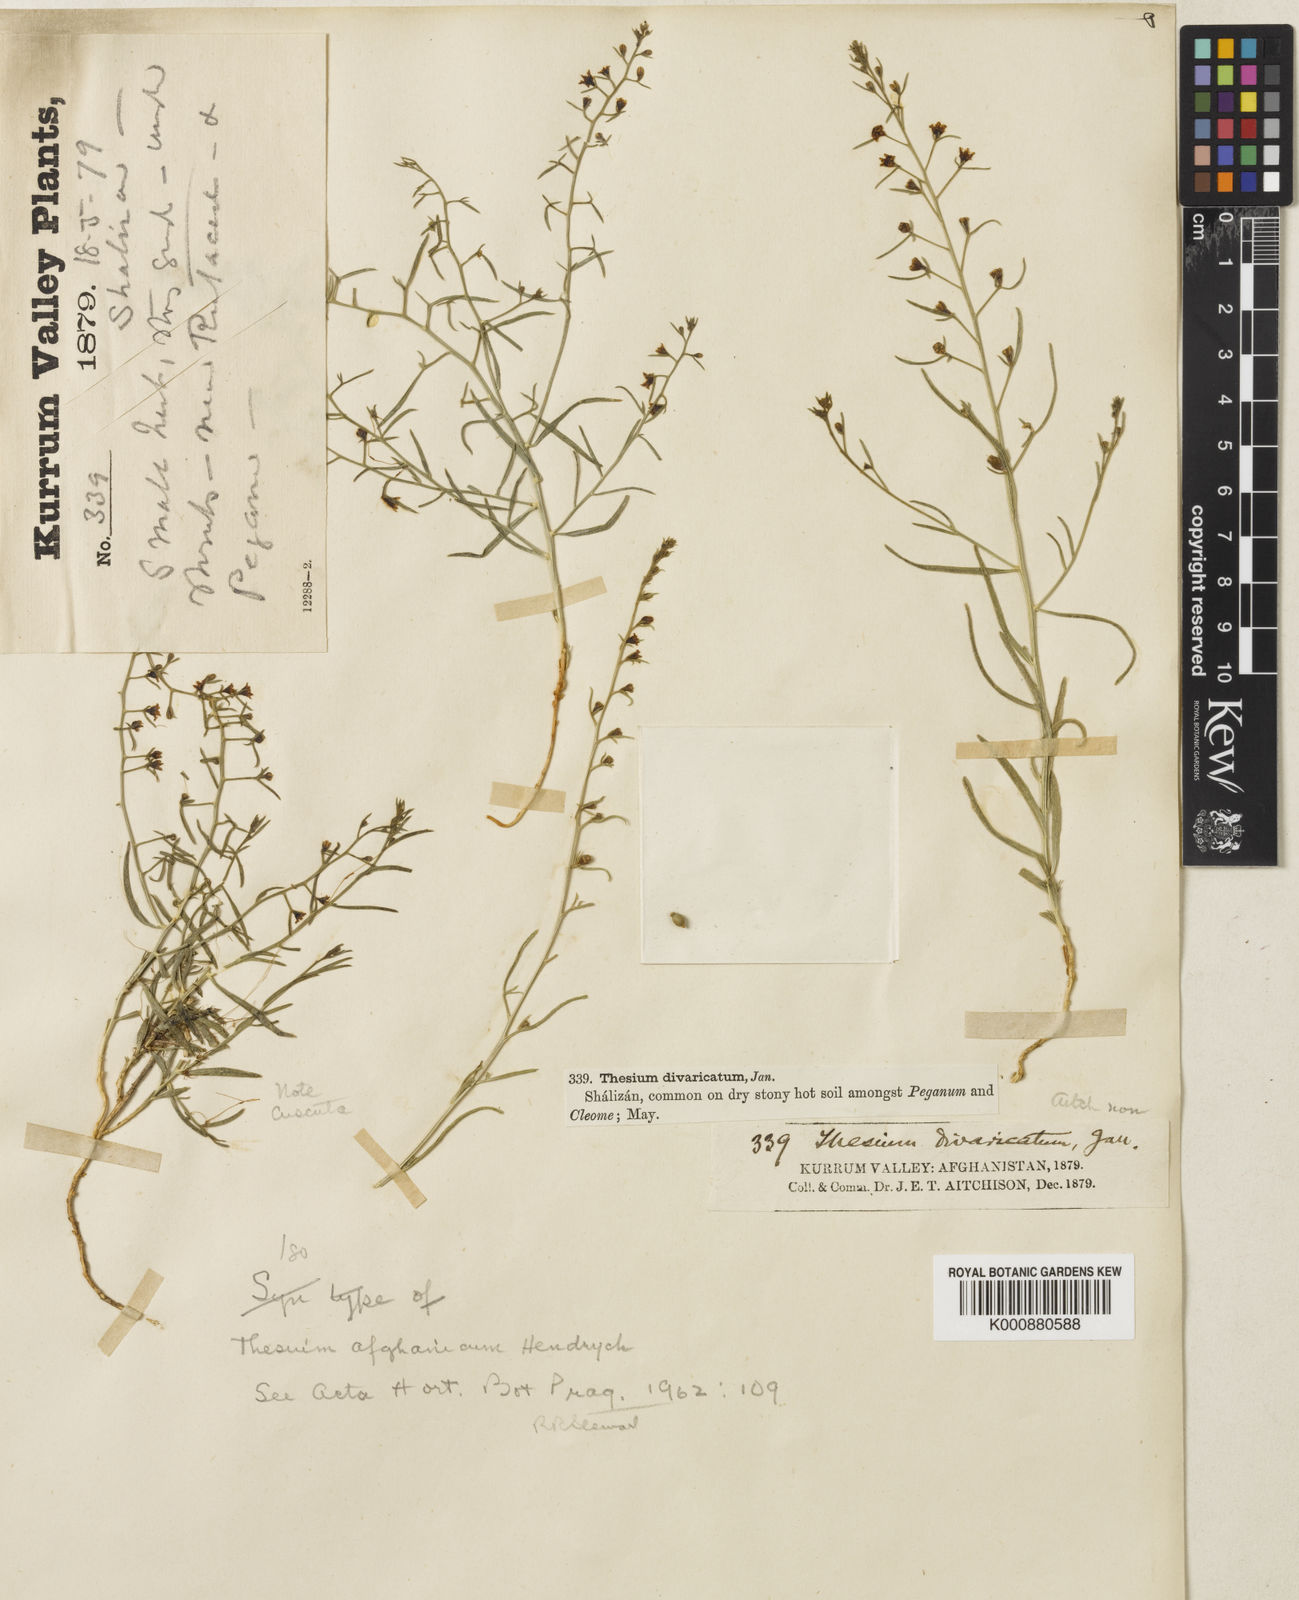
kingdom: Plantae
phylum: Tracheophyta
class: Magnoliopsida
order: Santalales
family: Thesiaceae
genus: Thesium
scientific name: Thesium afghanicum
